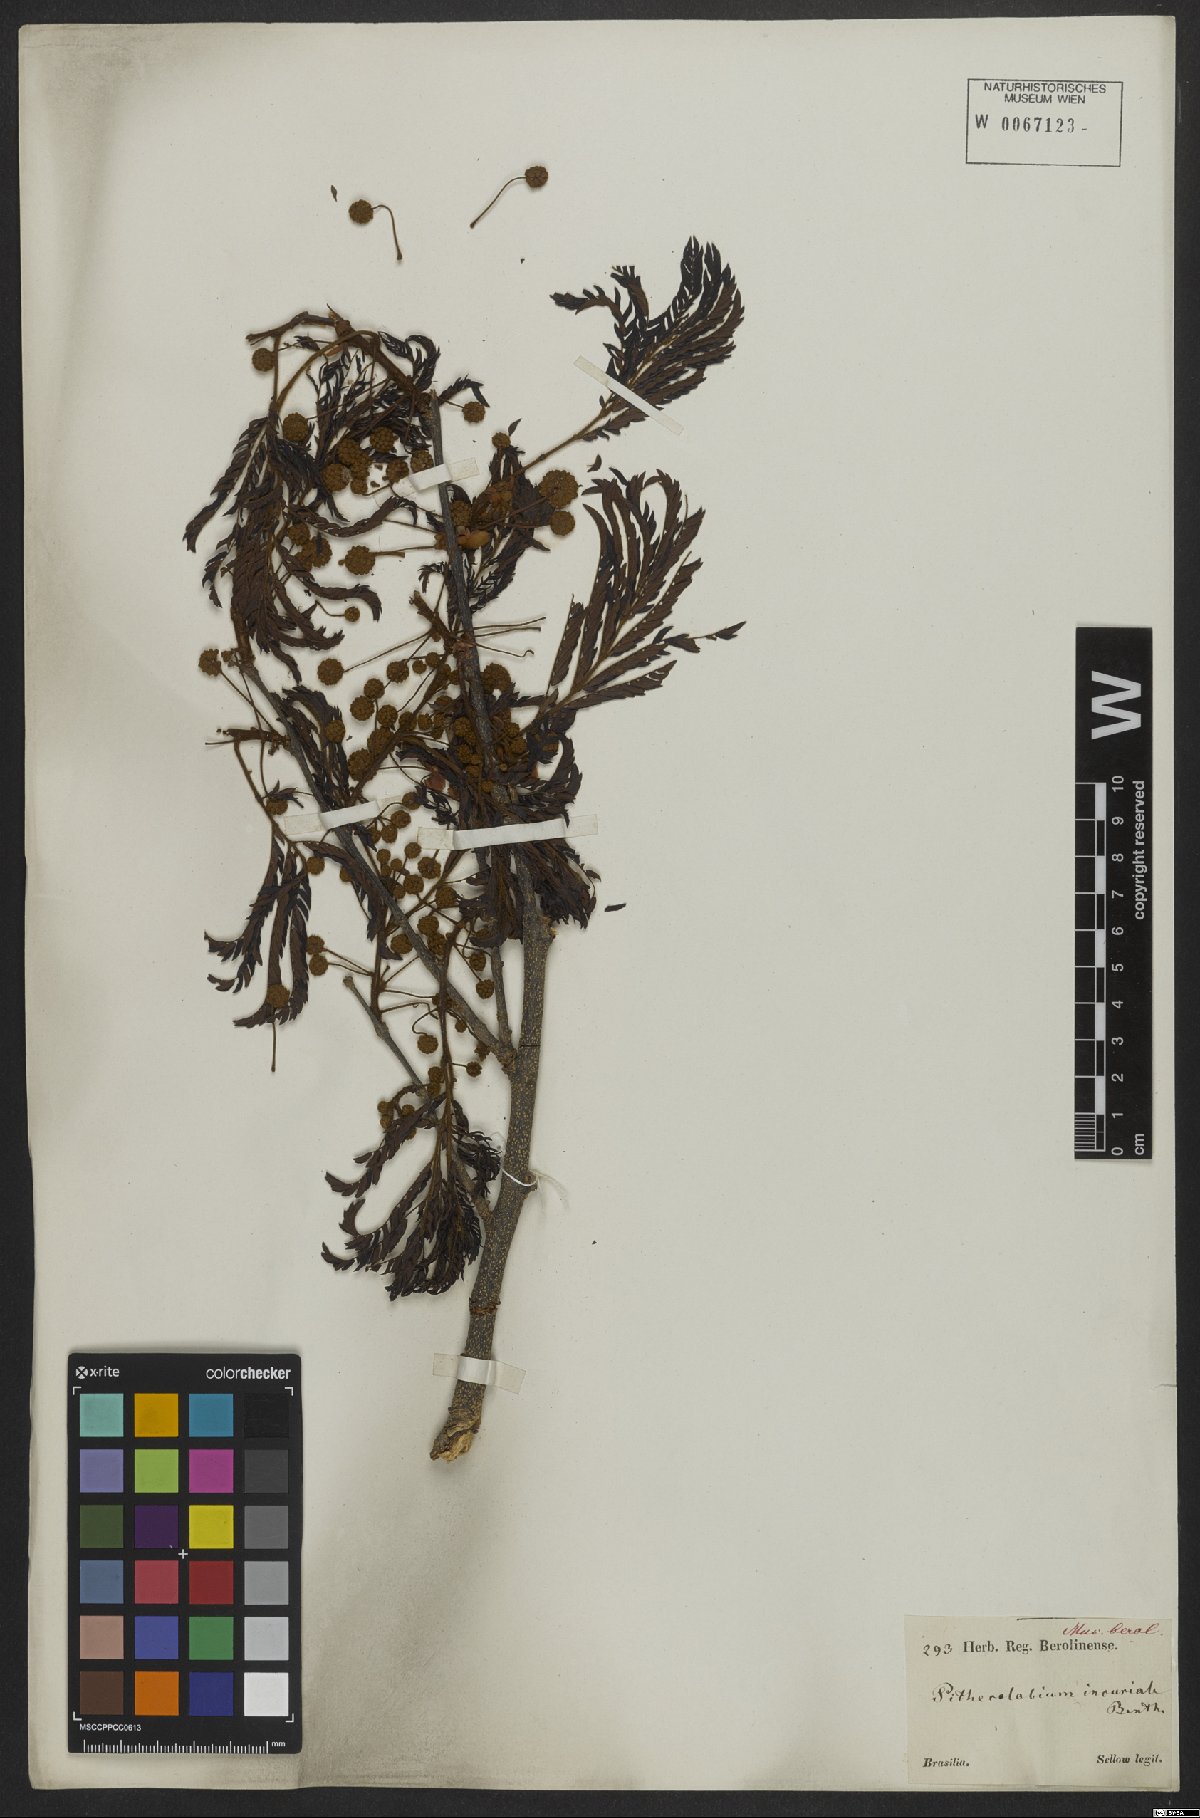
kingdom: Plantae
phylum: Tracheophyta
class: Magnoliopsida
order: Fabales
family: Fabaceae
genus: Leucochloron
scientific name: Leucochloron incuriale
